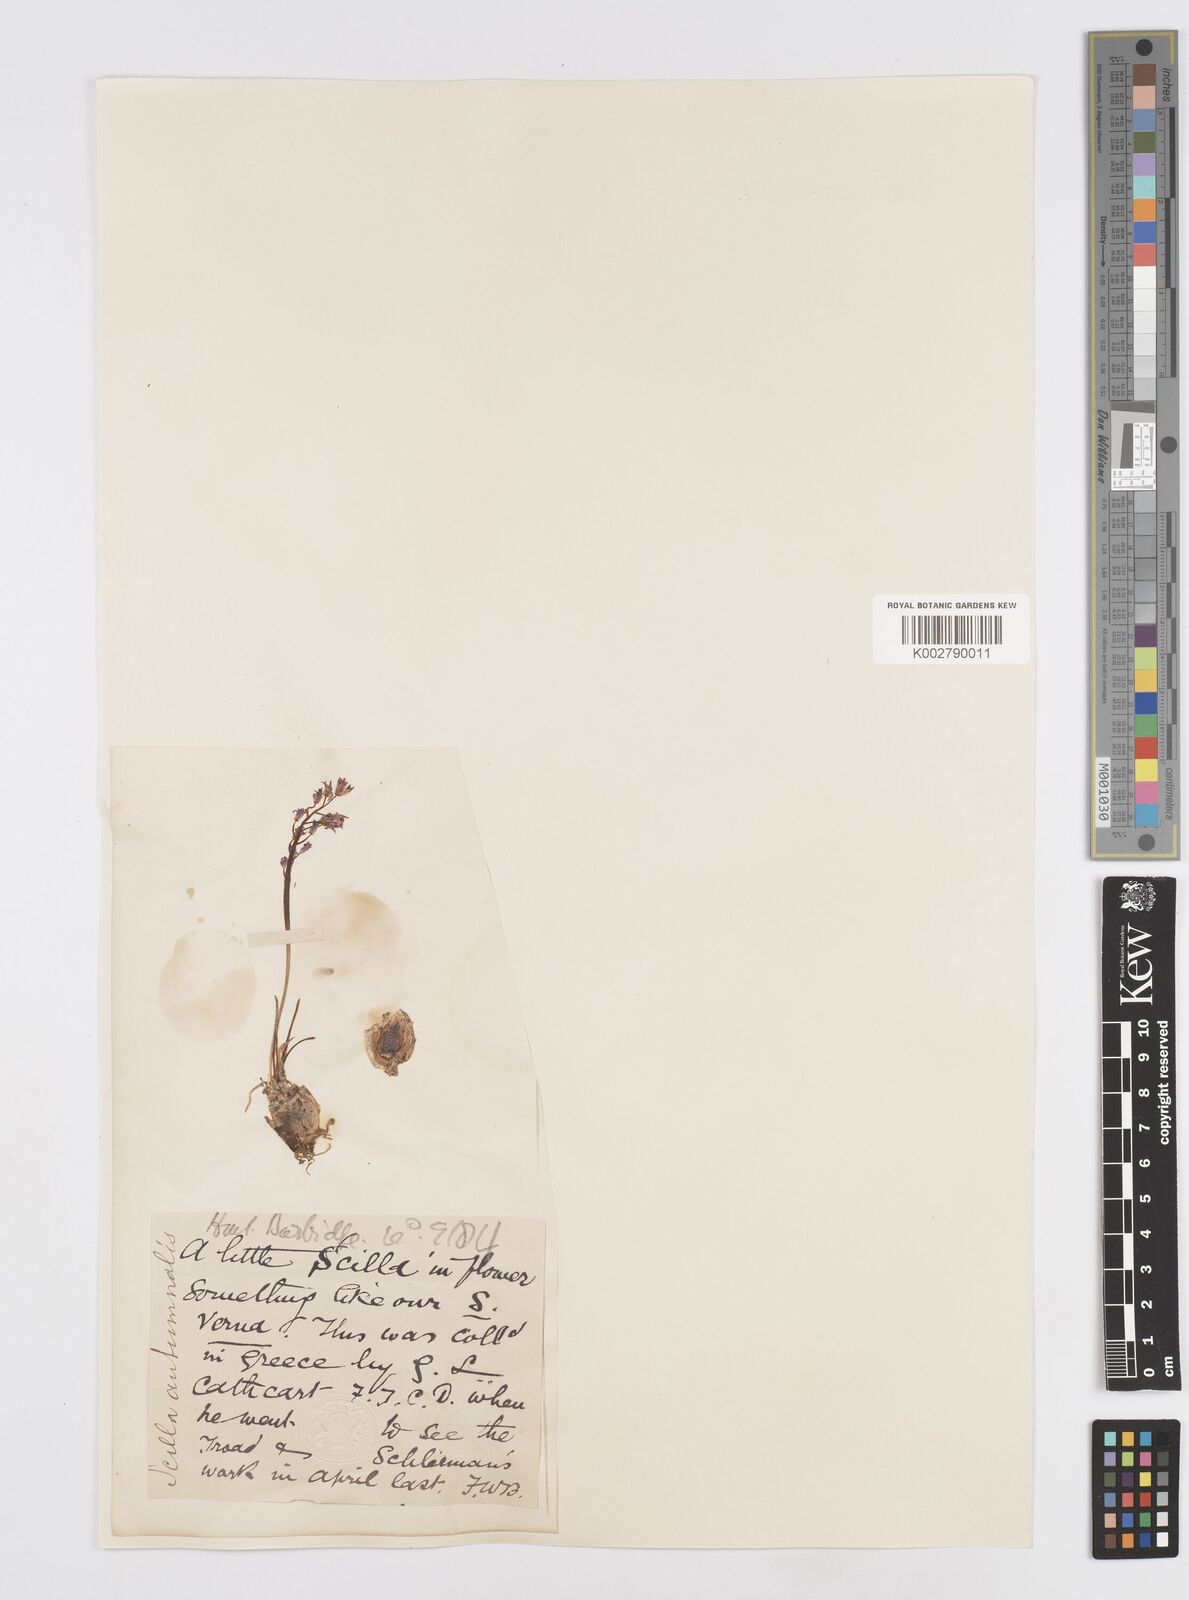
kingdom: Plantae
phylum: Tracheophyta
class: Liliopsida
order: Asparagales
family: Asparagaceae
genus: Prospero
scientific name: Prospero autumnale
